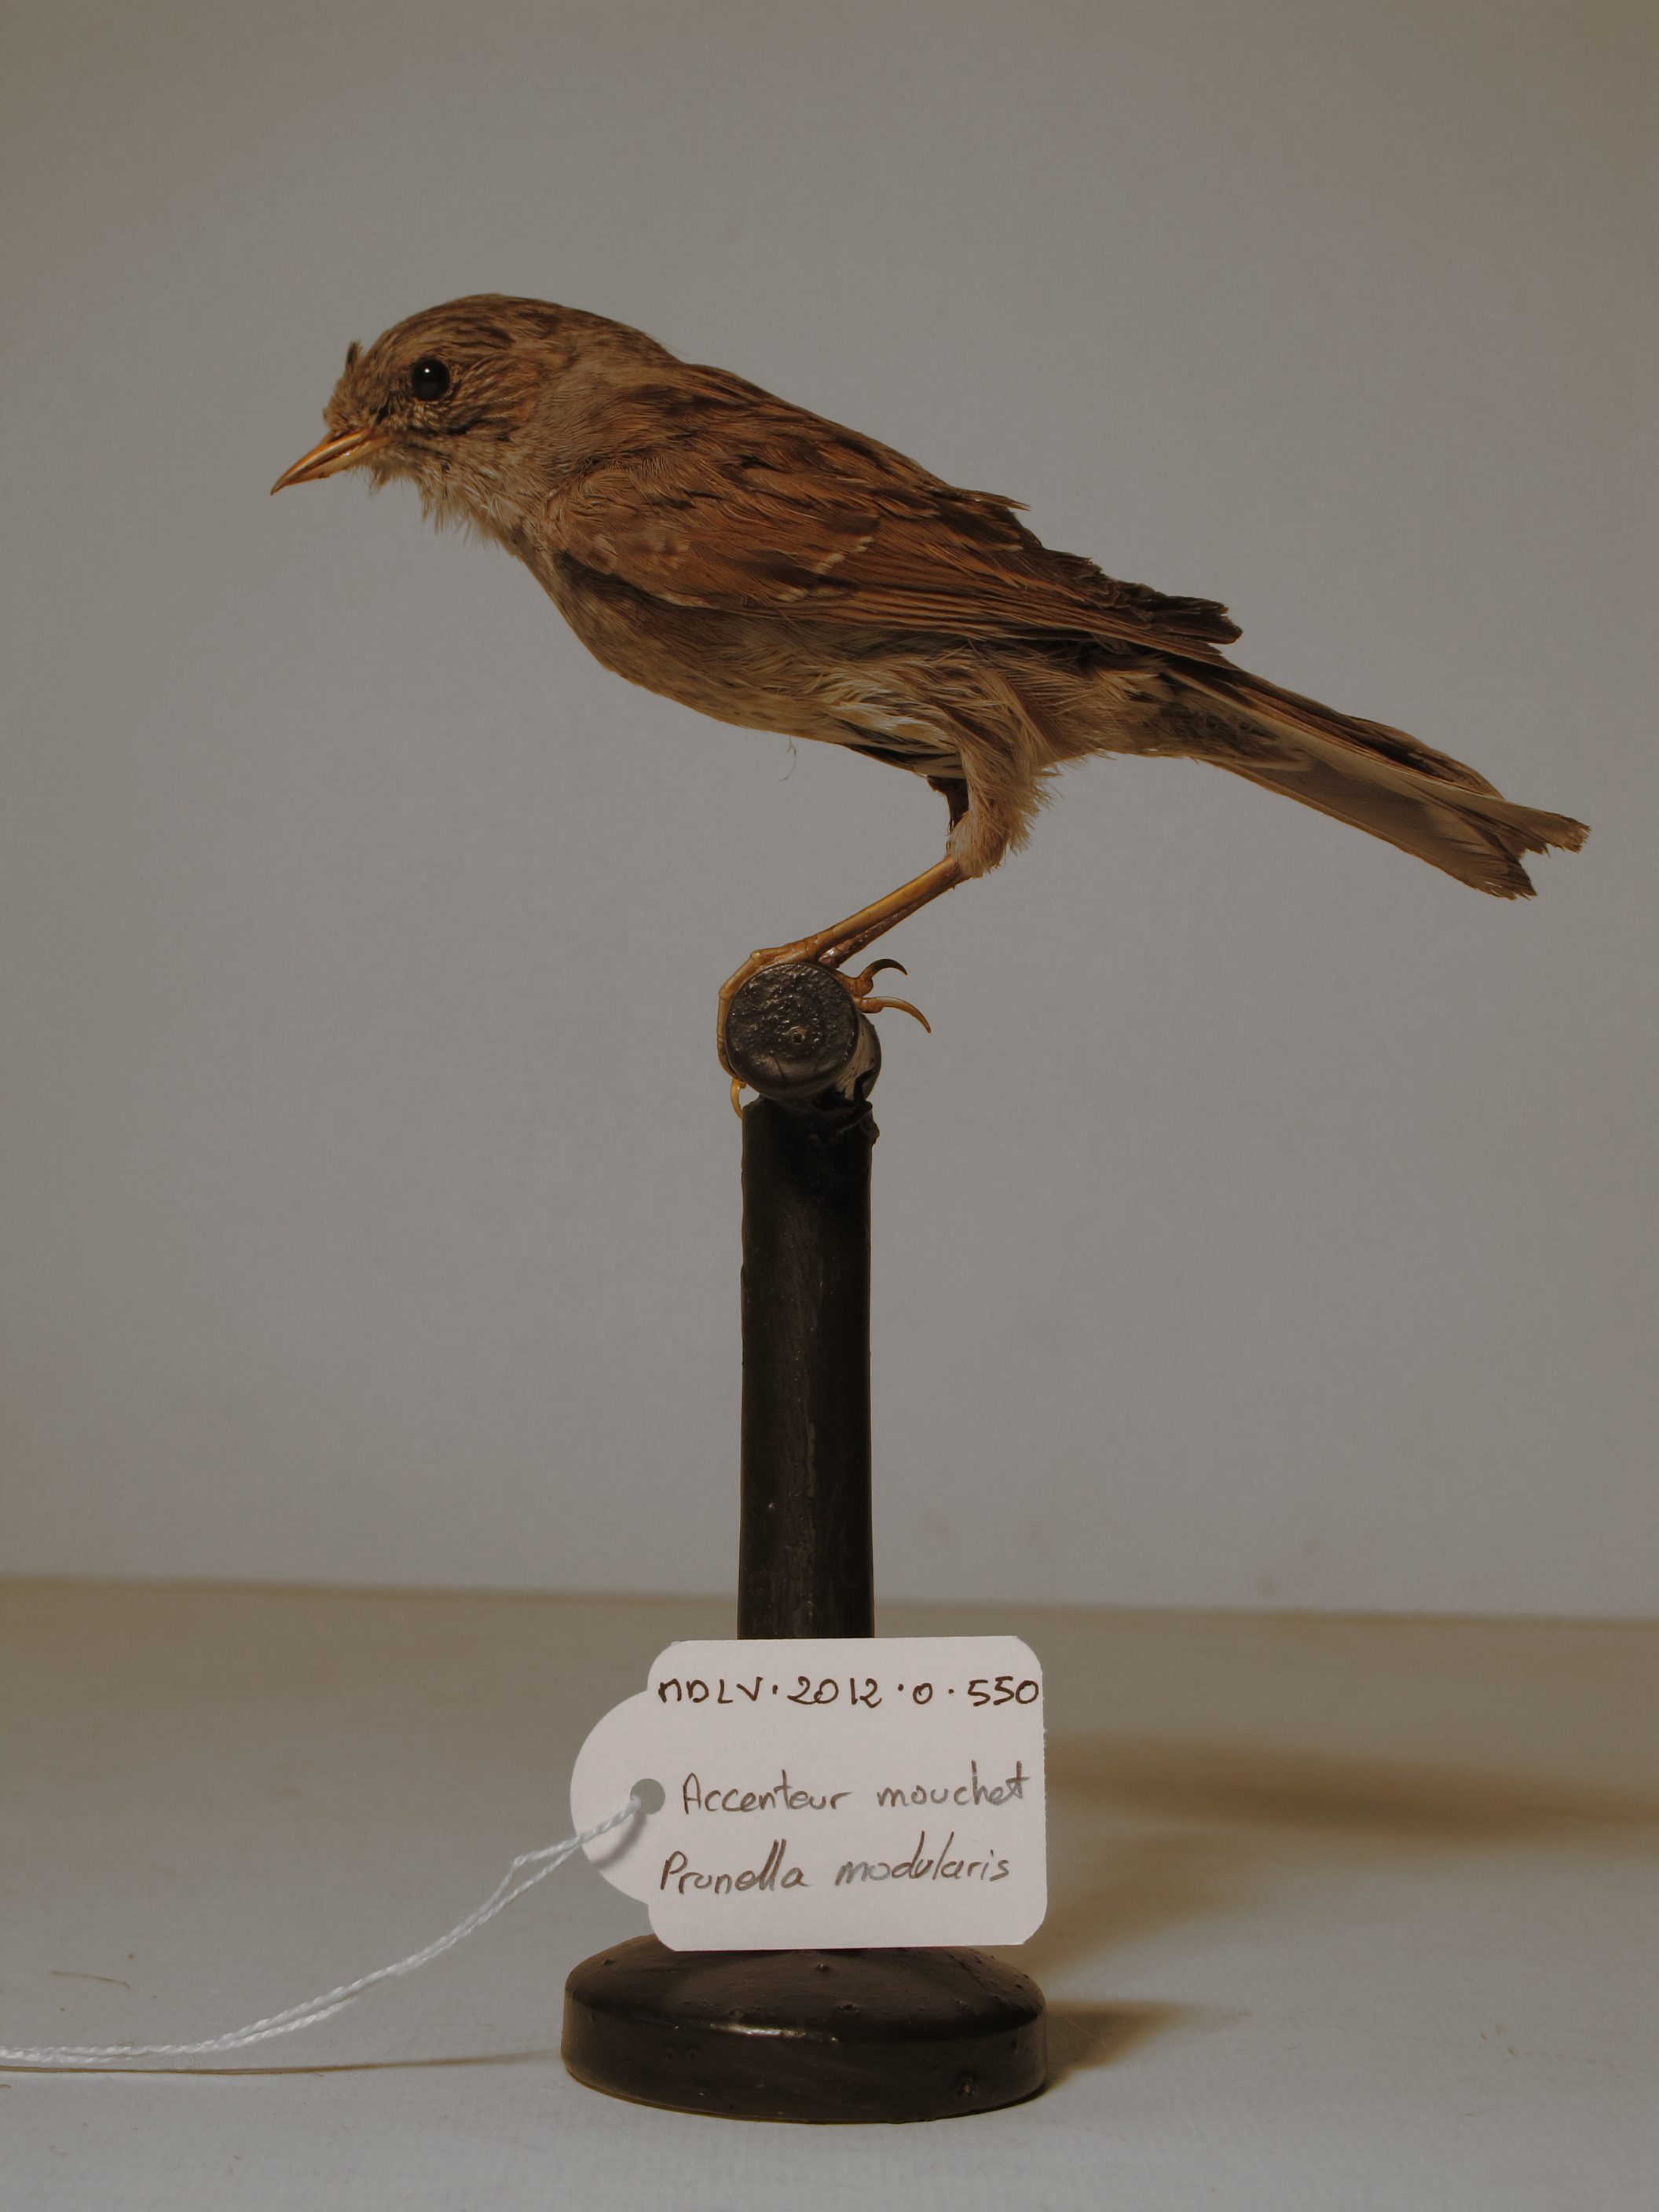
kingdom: Animalia
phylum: Chordata
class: Aves
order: Passeriformes
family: Prunellidae
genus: Prunella
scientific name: Prunella modularis
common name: Dunnock
